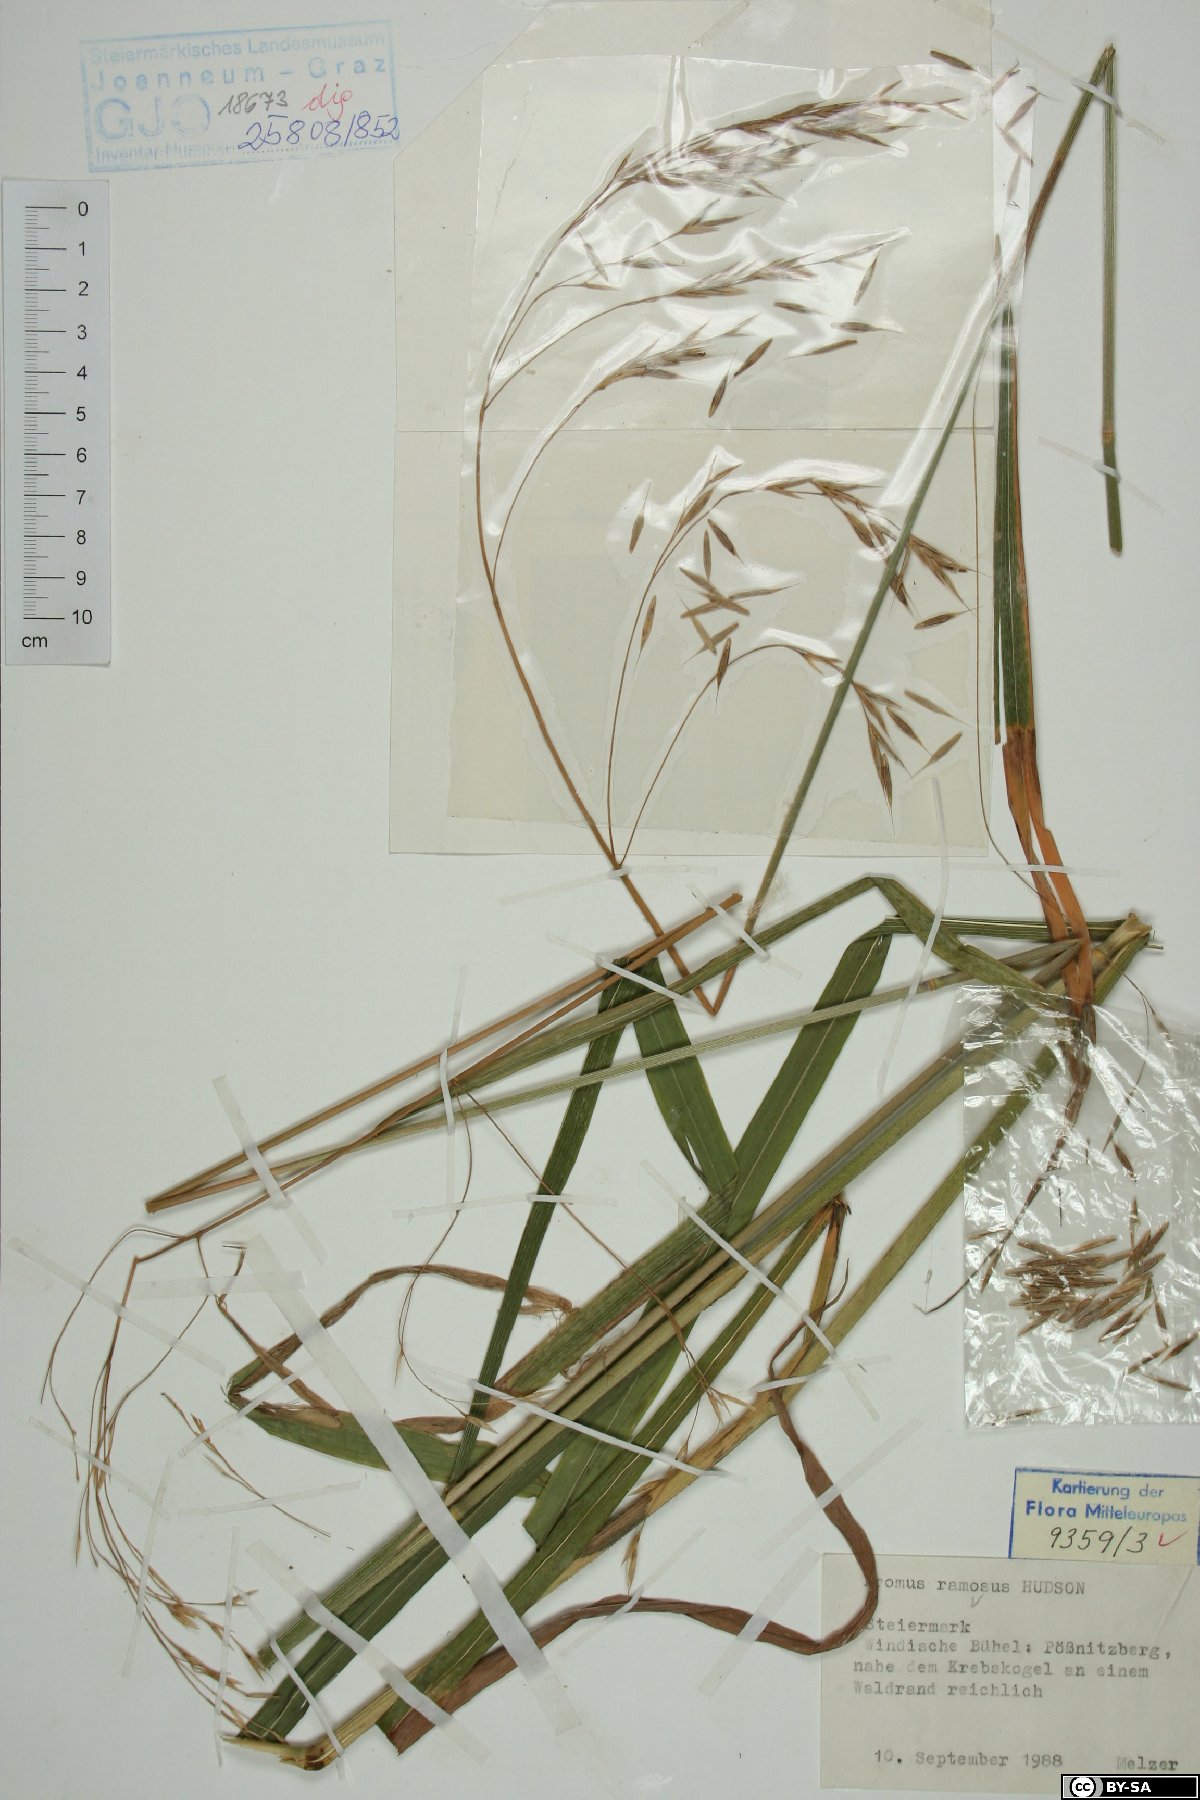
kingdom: Plantae
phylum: Tracheophyta
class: Liliopsida
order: Poales
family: Poaceae
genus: Bromus
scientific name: Bromus ramosus
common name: Hairy brome
